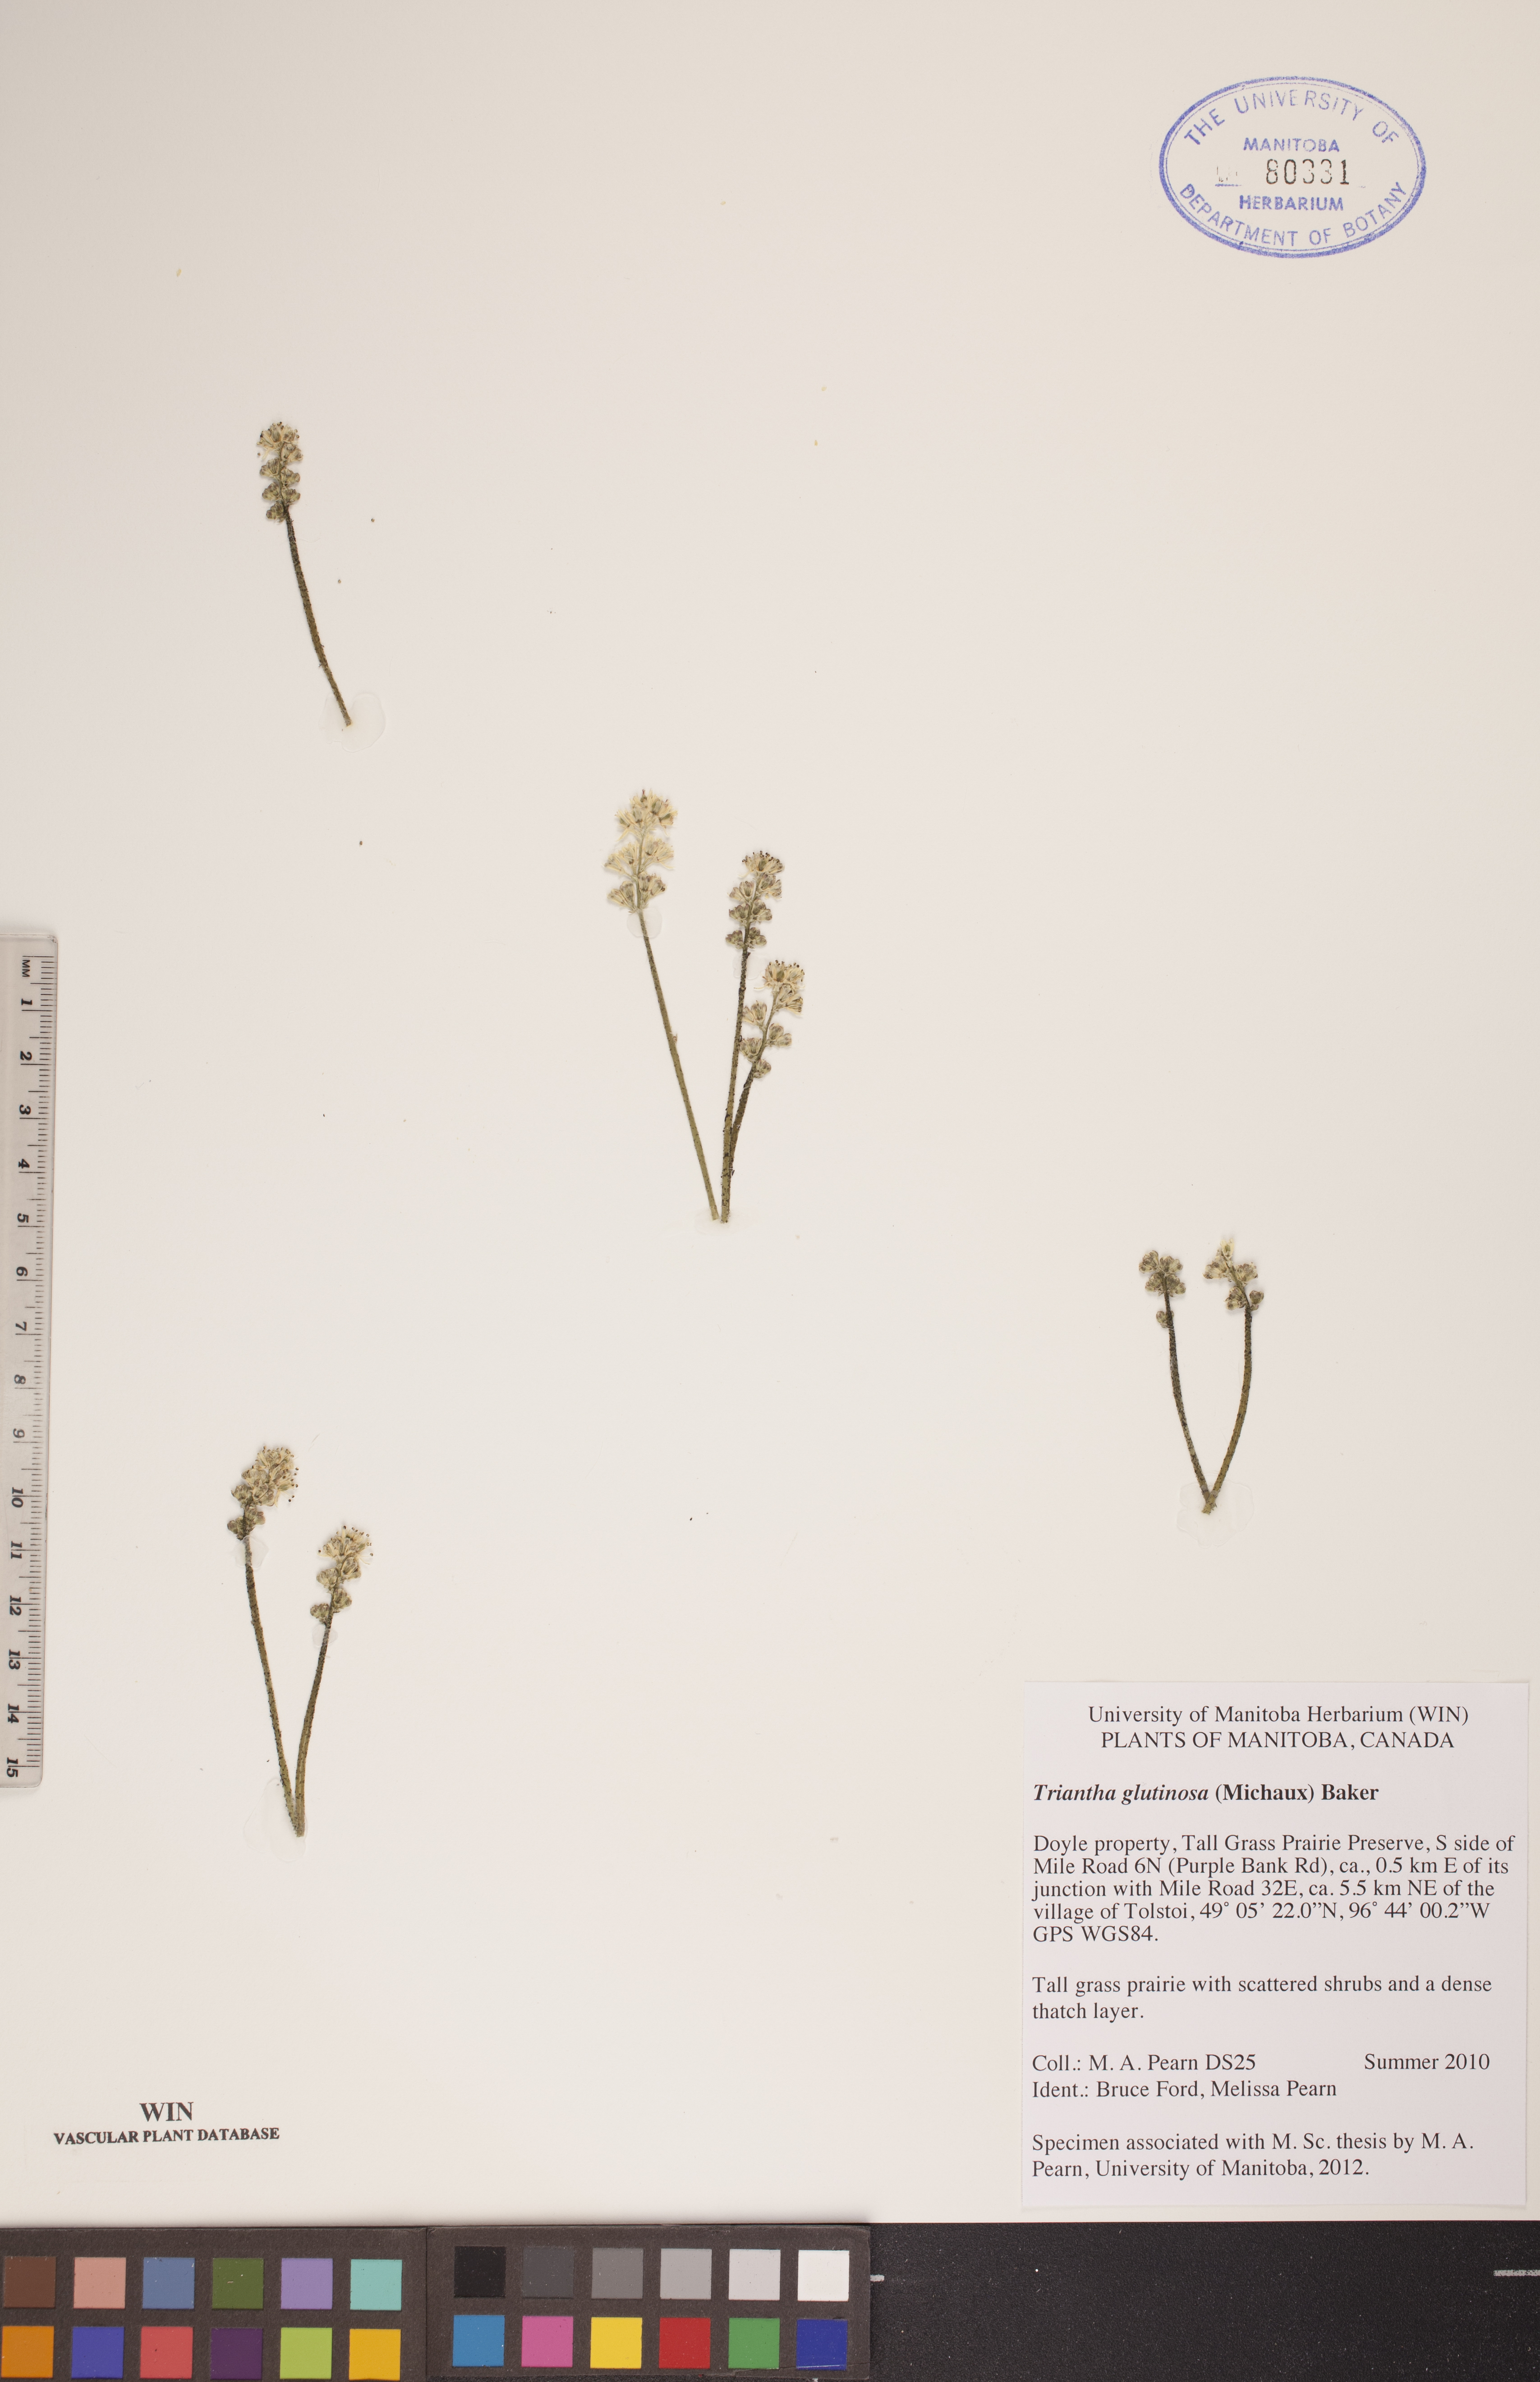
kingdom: Plantae
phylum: Tracheophyta
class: Liliopsida
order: Alismatales
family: Tofieldiaceae
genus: Triantha
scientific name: Triantha glutinosa
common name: Glutinous tofieldia
